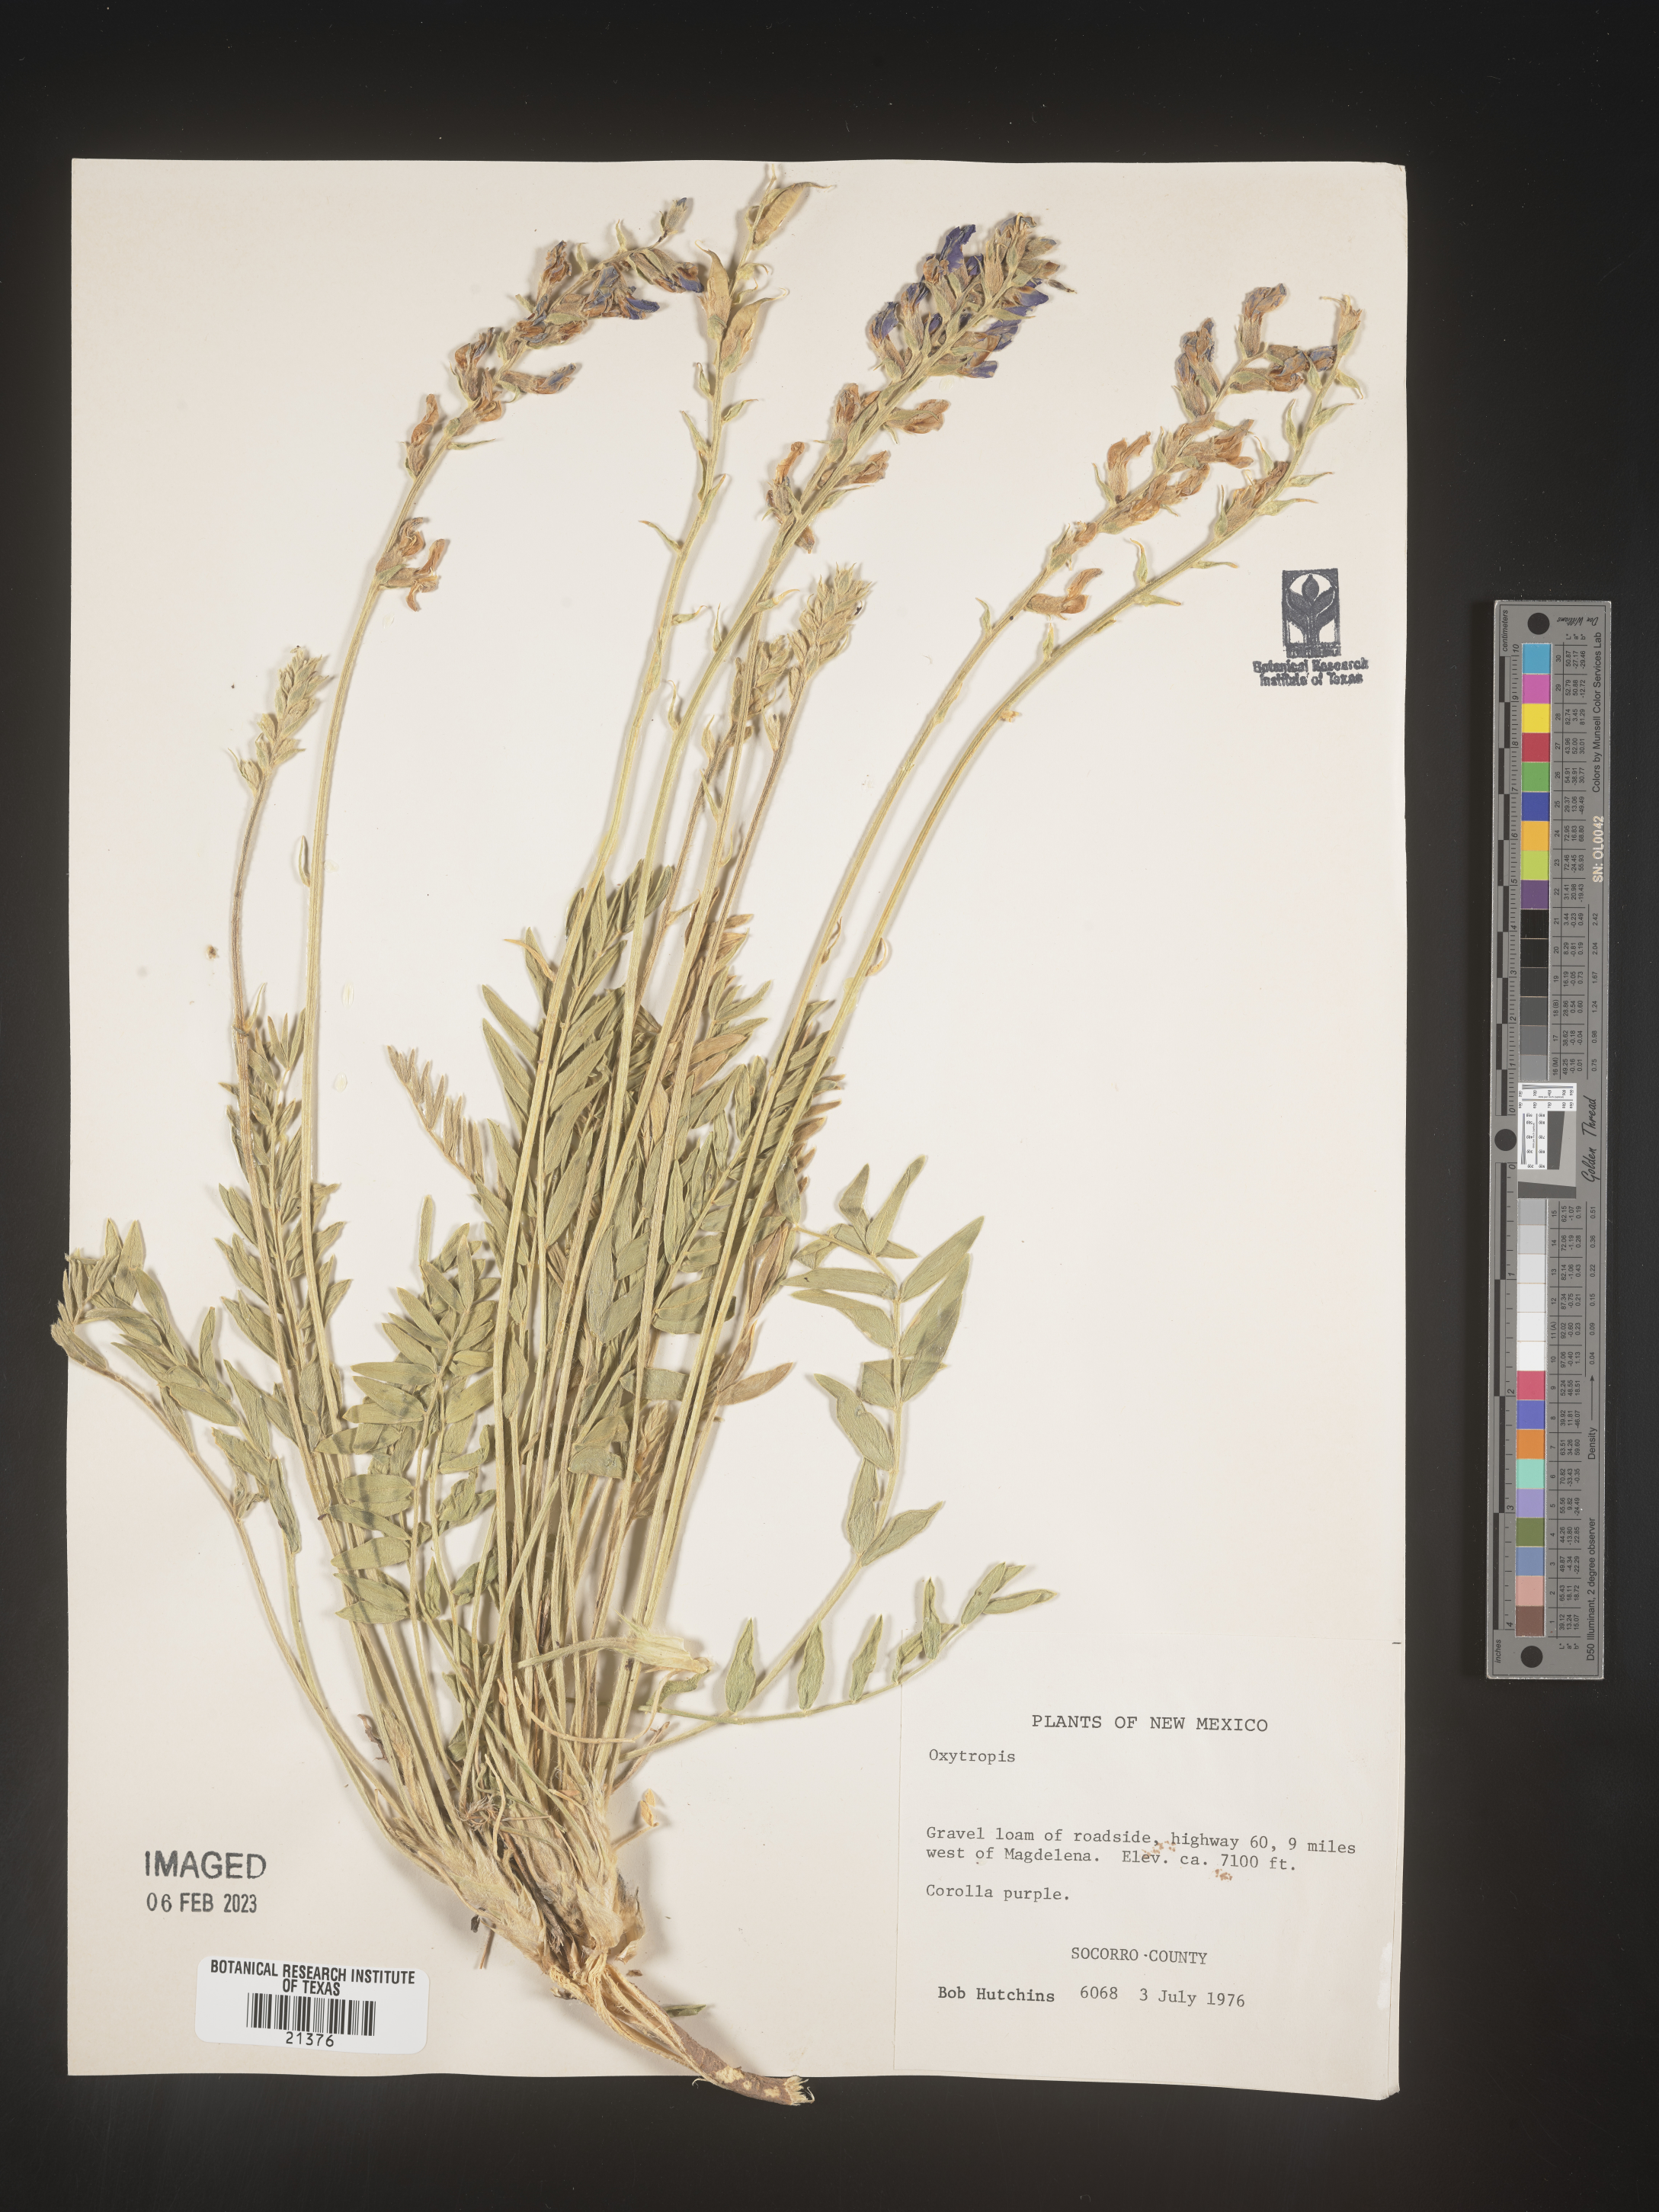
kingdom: Plantae
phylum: Tracheophyta
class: Magnoliopsida
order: Fabales
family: Fabaceae
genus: Oxytropis
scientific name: Oxytropis
